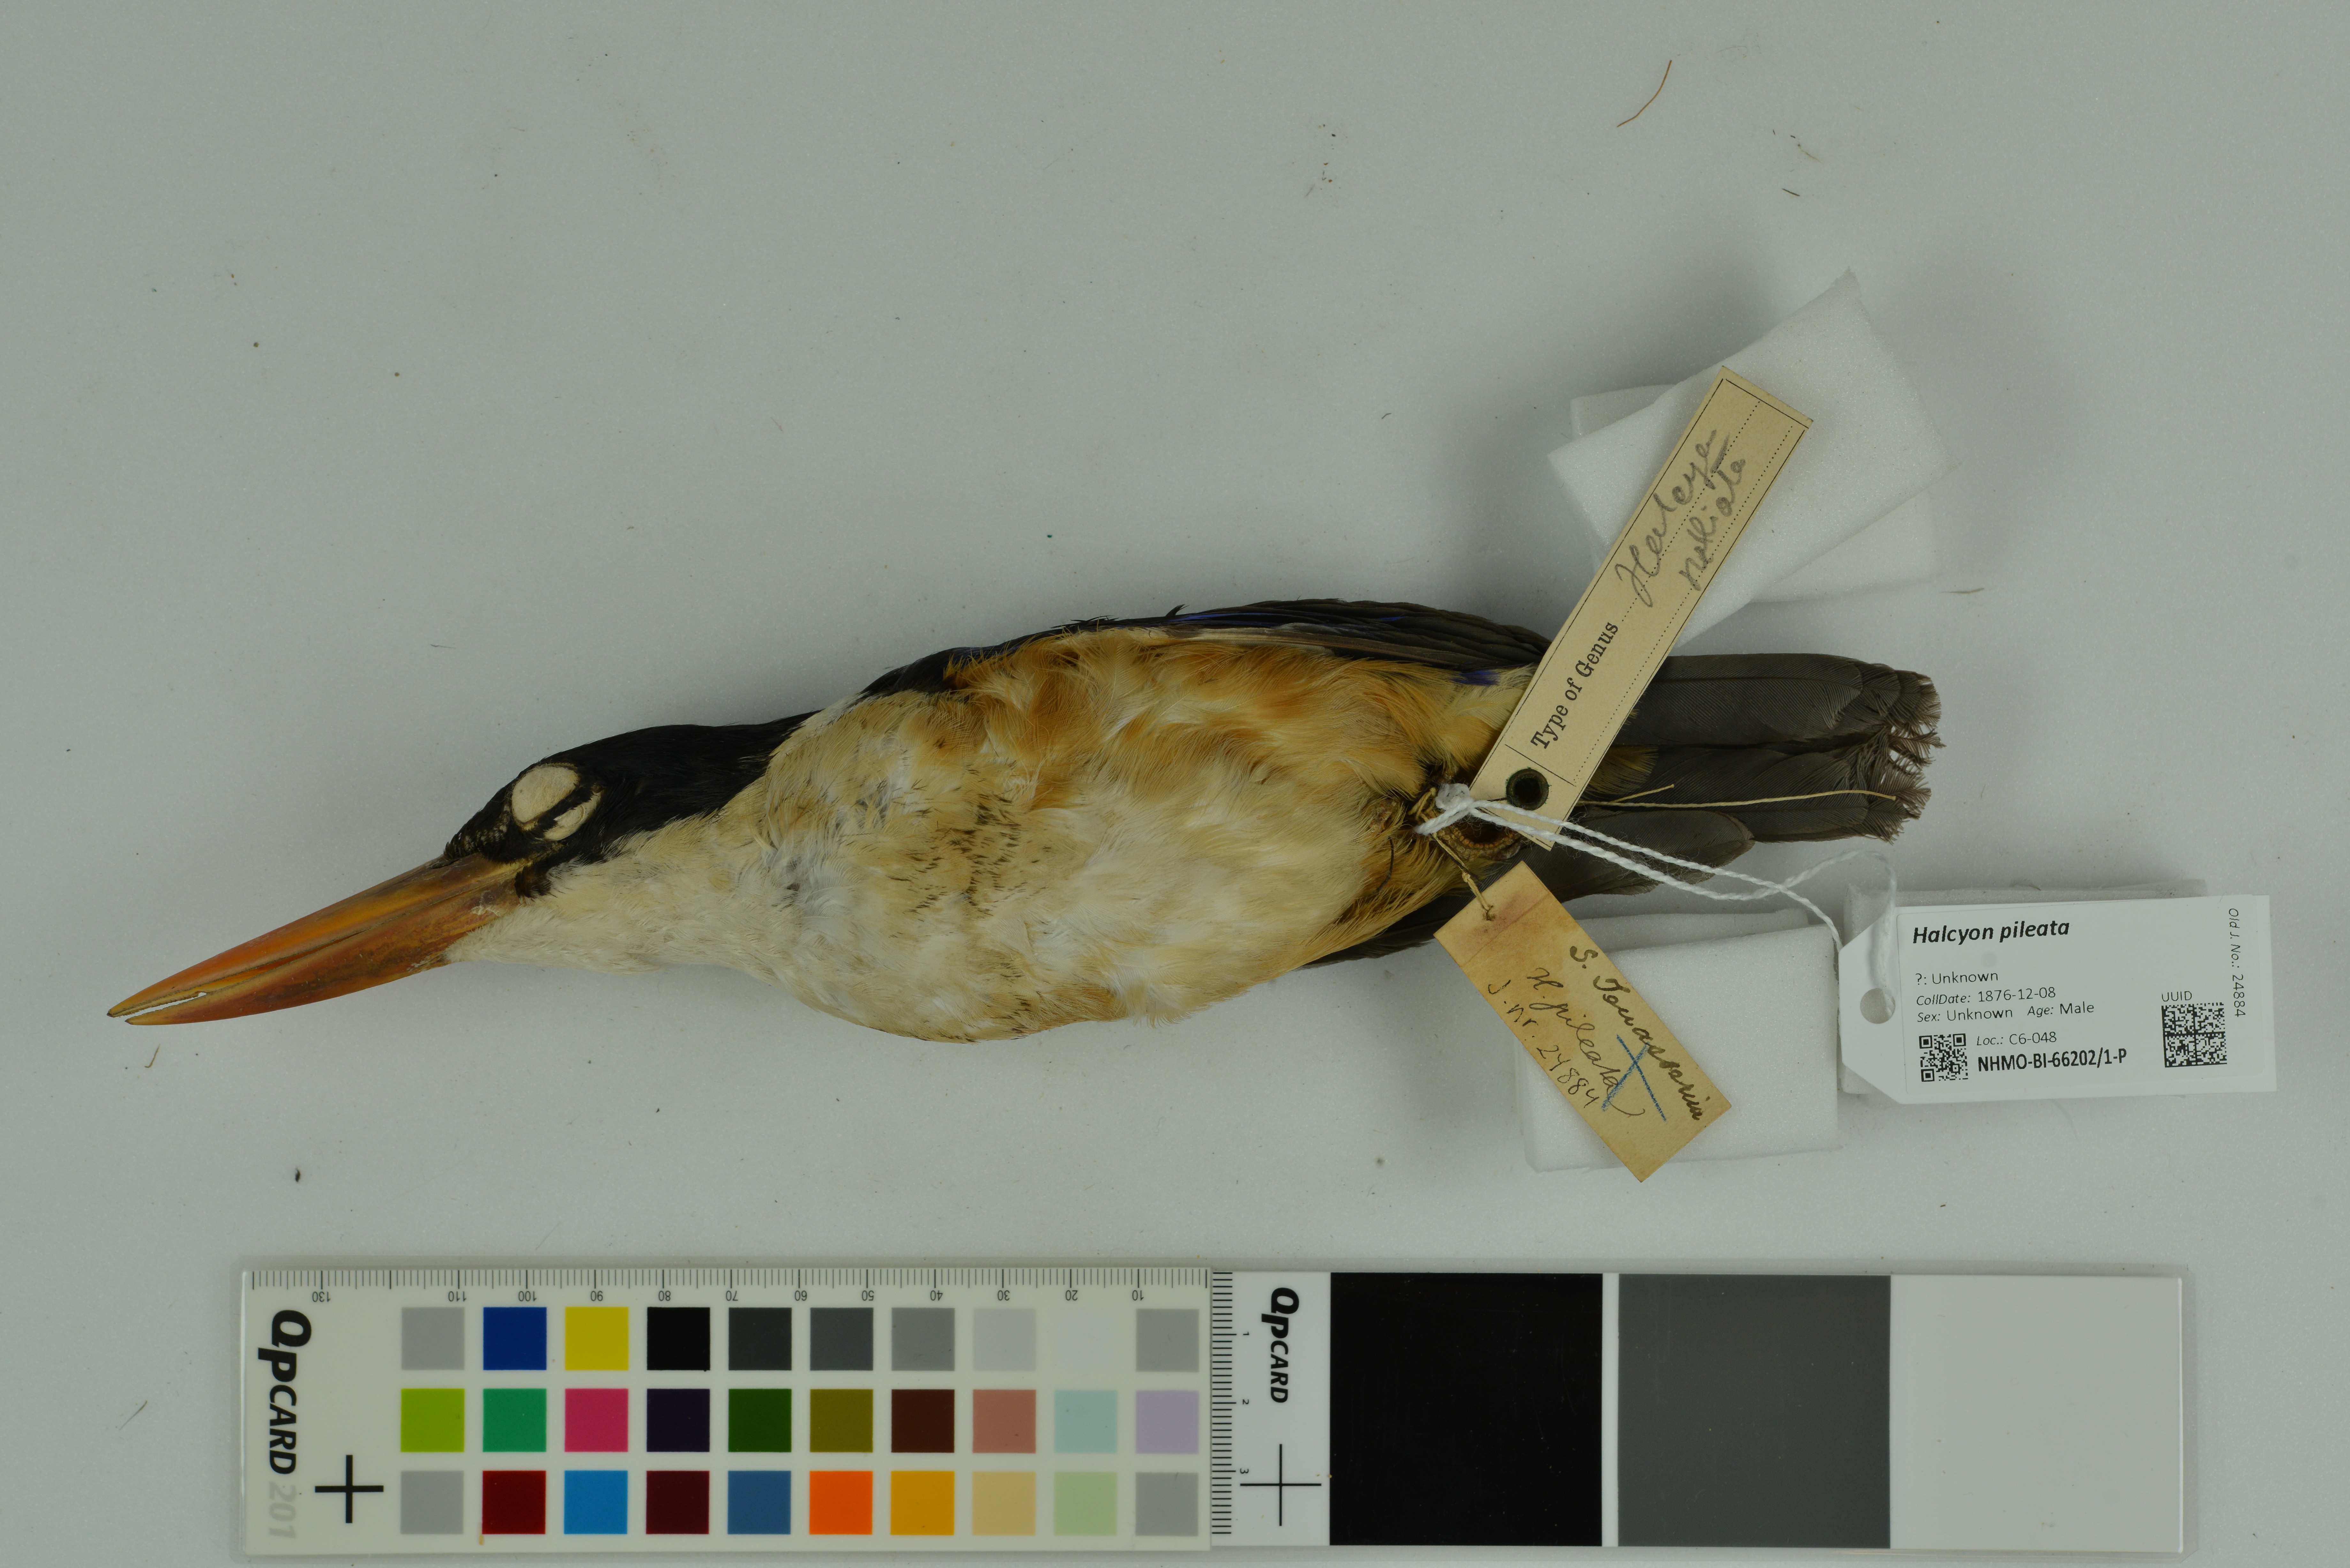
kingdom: Animalia
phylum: Chordata
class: Aves
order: Coraciiformes
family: Alcedinidae
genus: Halcyon
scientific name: Halcyon pileata
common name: Black-capped kingfisher
